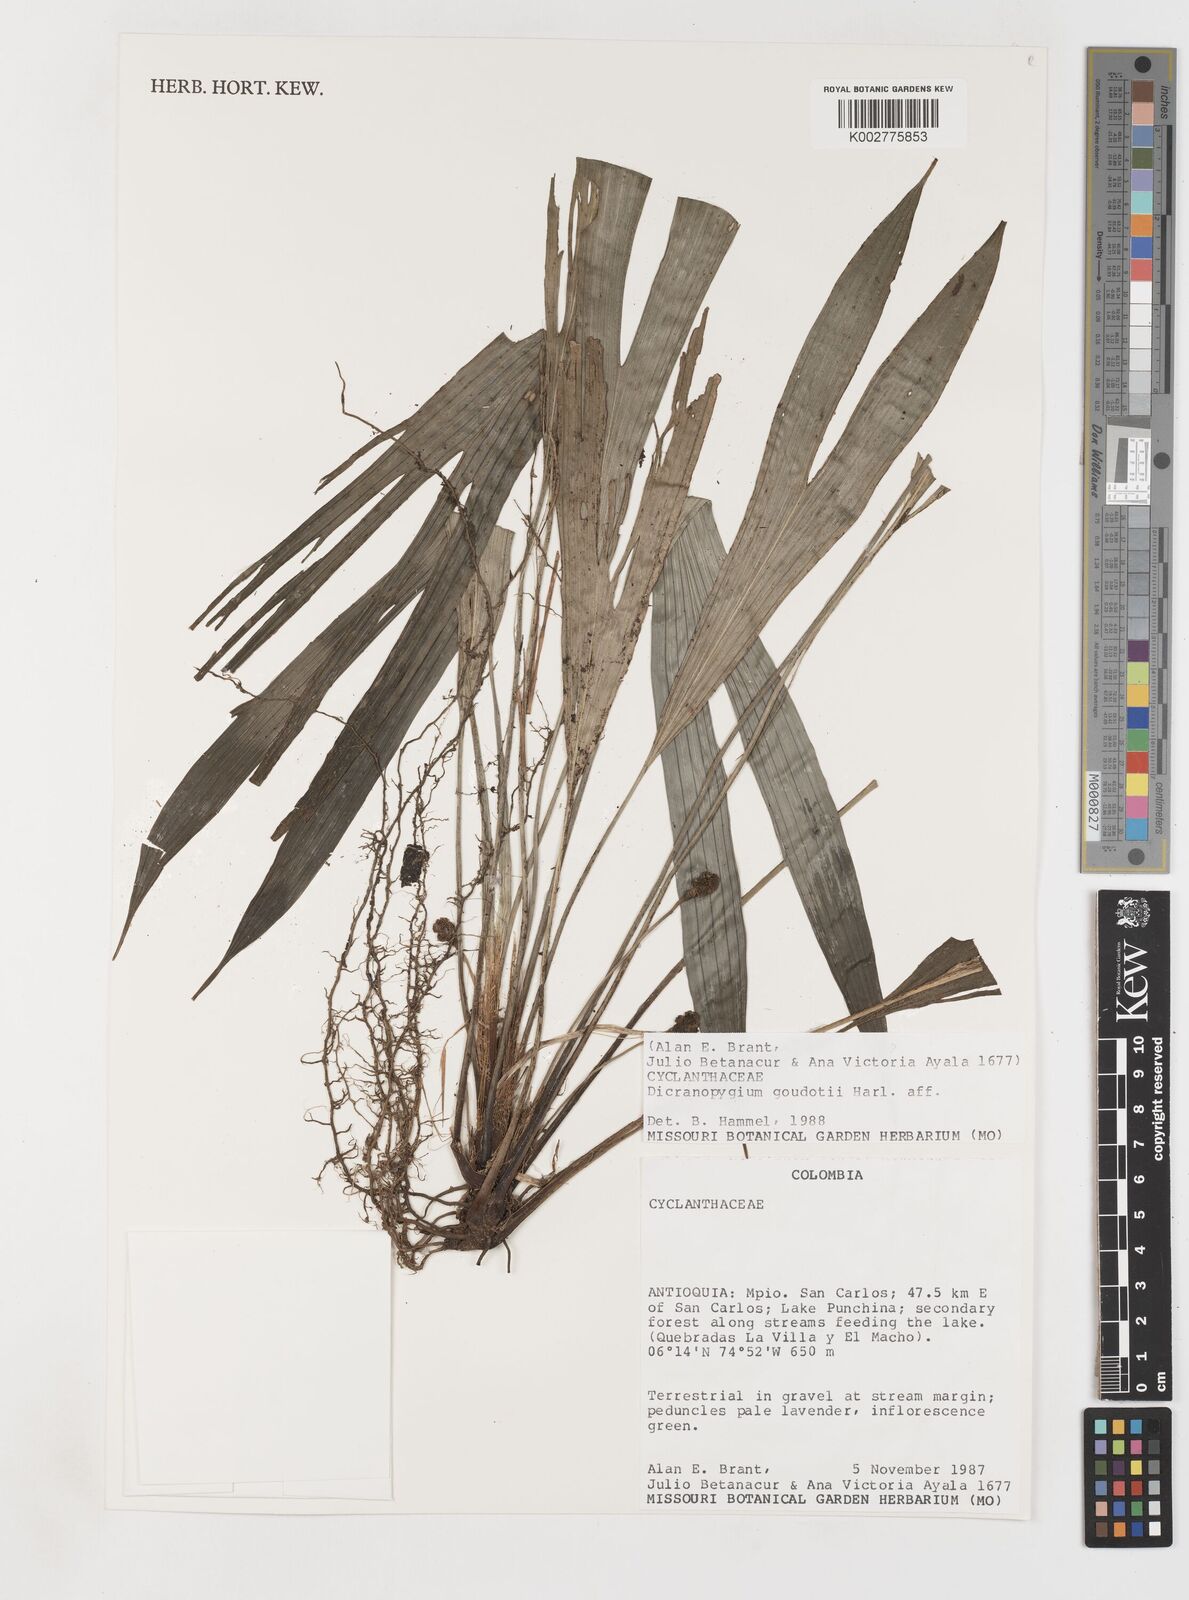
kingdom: Plantae
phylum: Tracheophyta
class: Liliopsida
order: Pandanales
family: Cyclanthaceae
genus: Dicranopygium
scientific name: Dicranopygium goudotii
